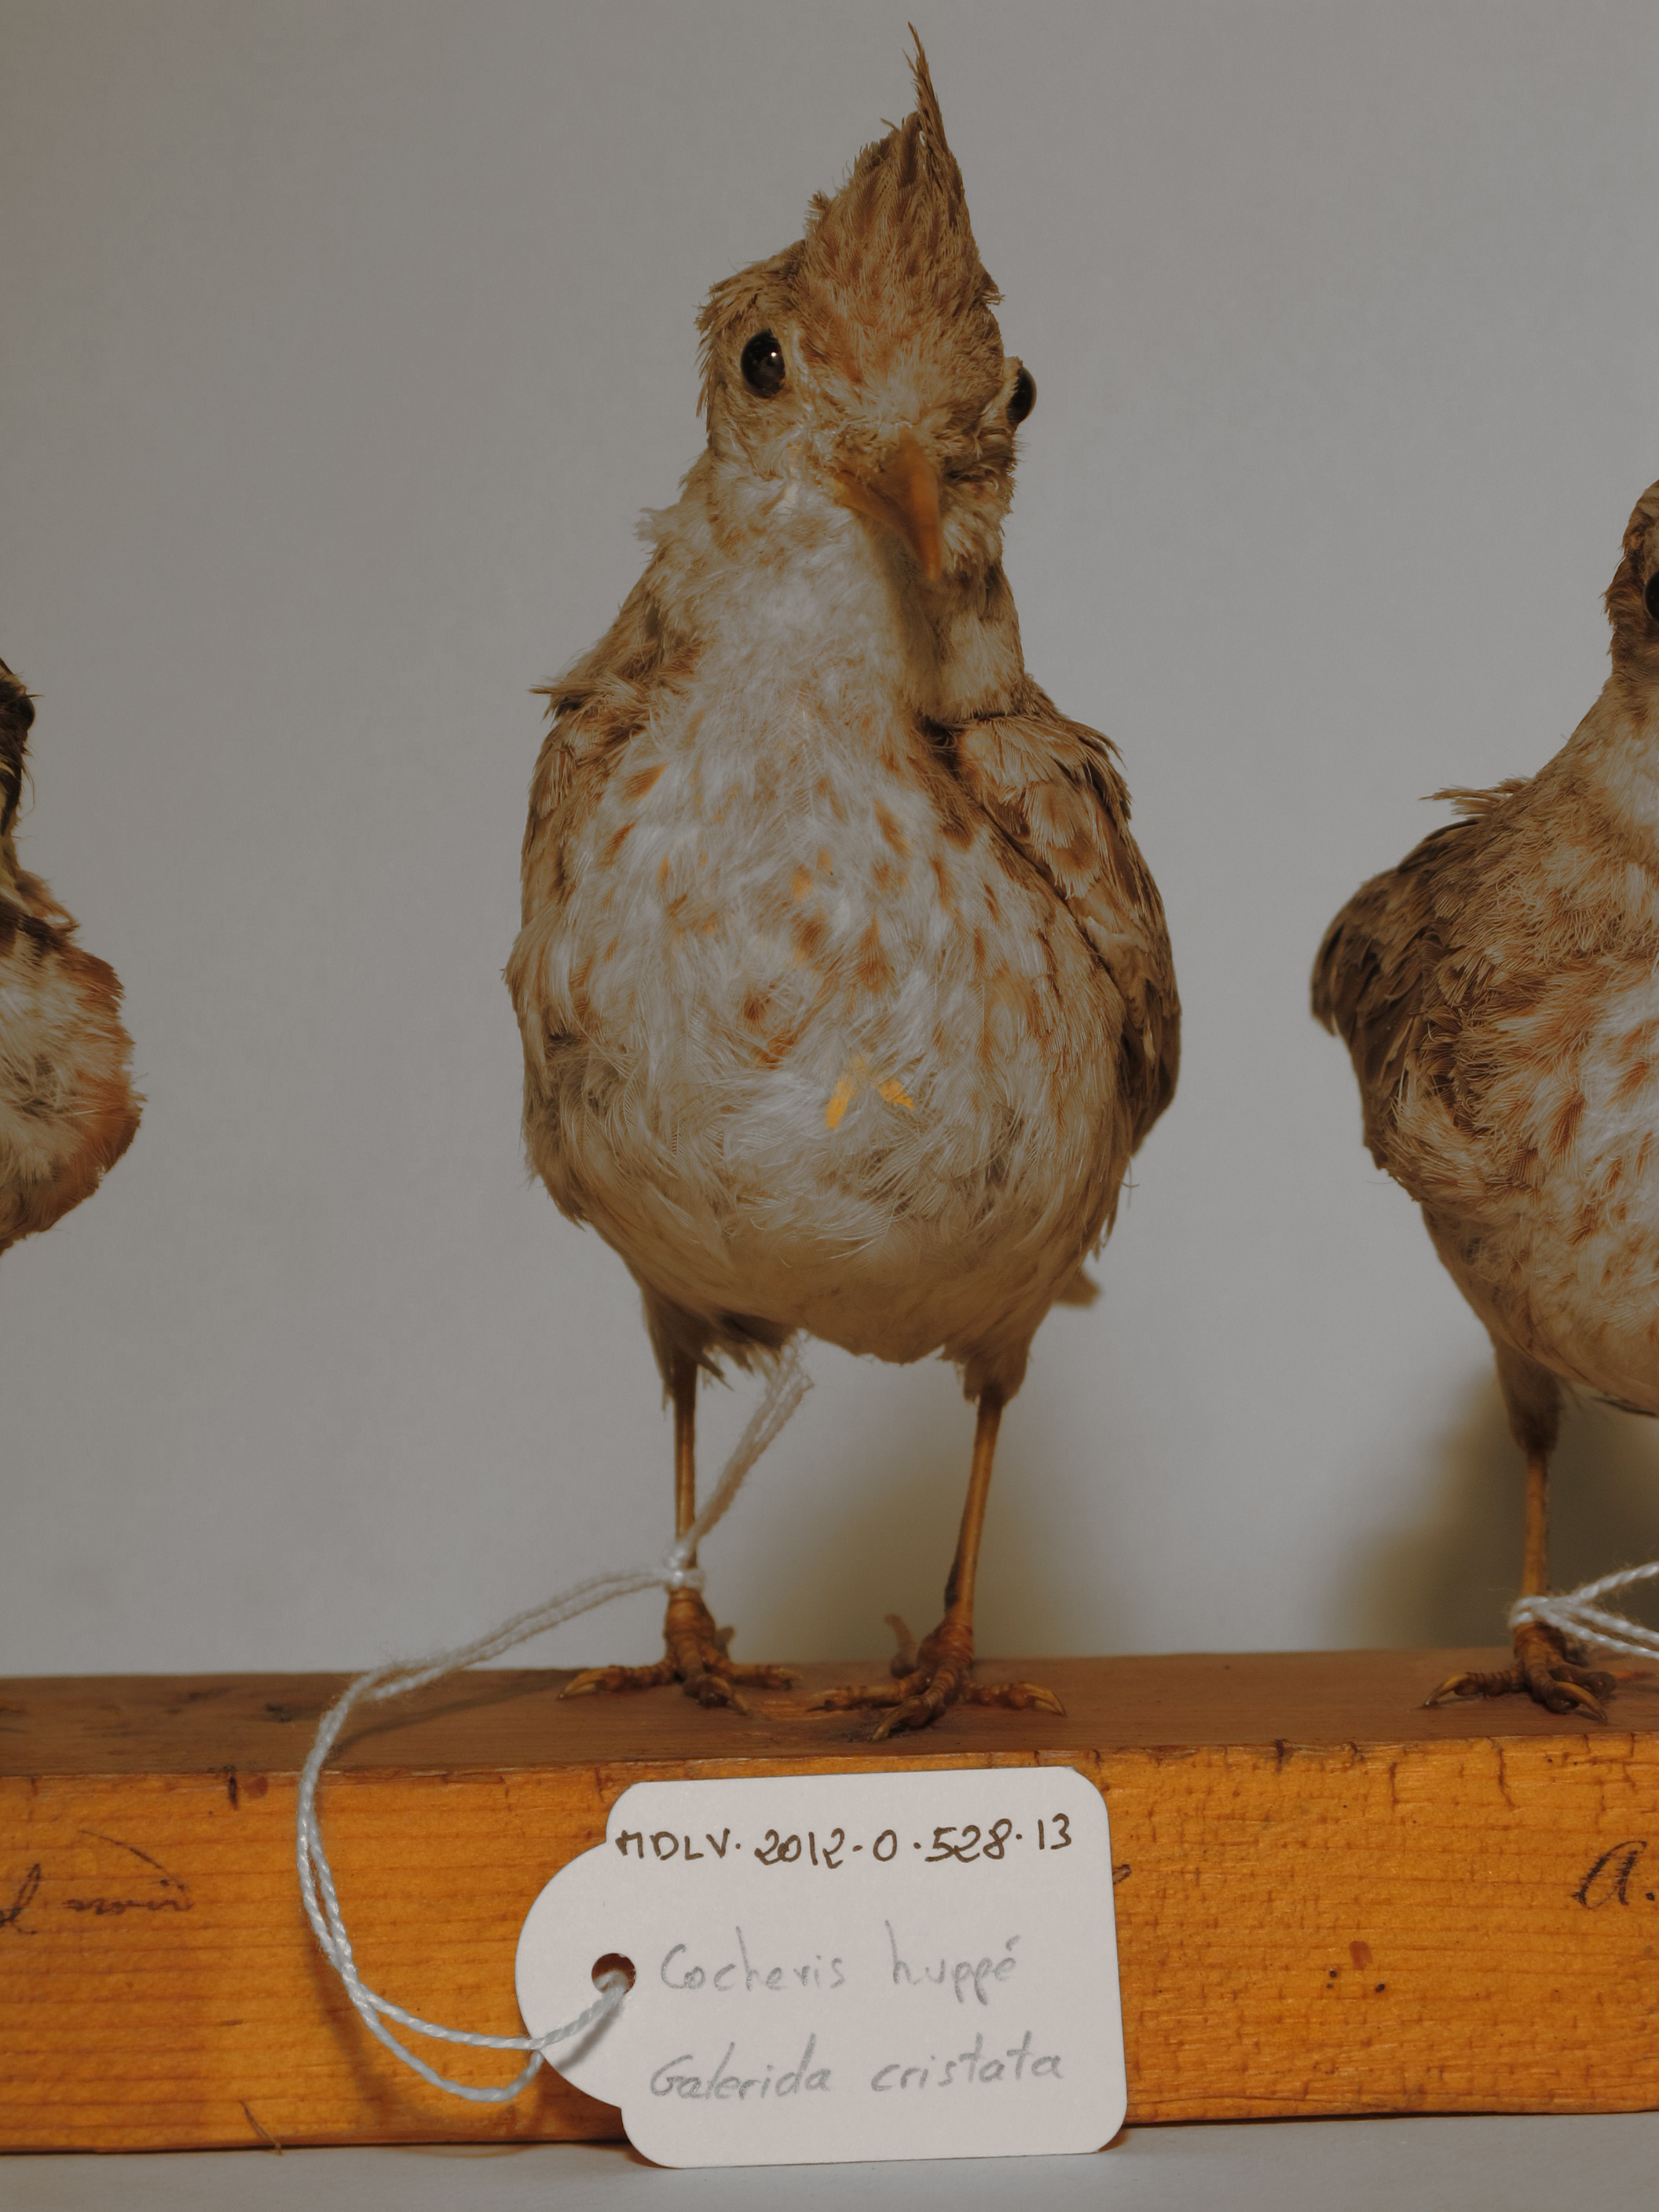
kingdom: Animalia
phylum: Chordata
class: Aves
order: Passeriformes
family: Alaudidae
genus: Galerida
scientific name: Galerida cristata
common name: Crested Lark
